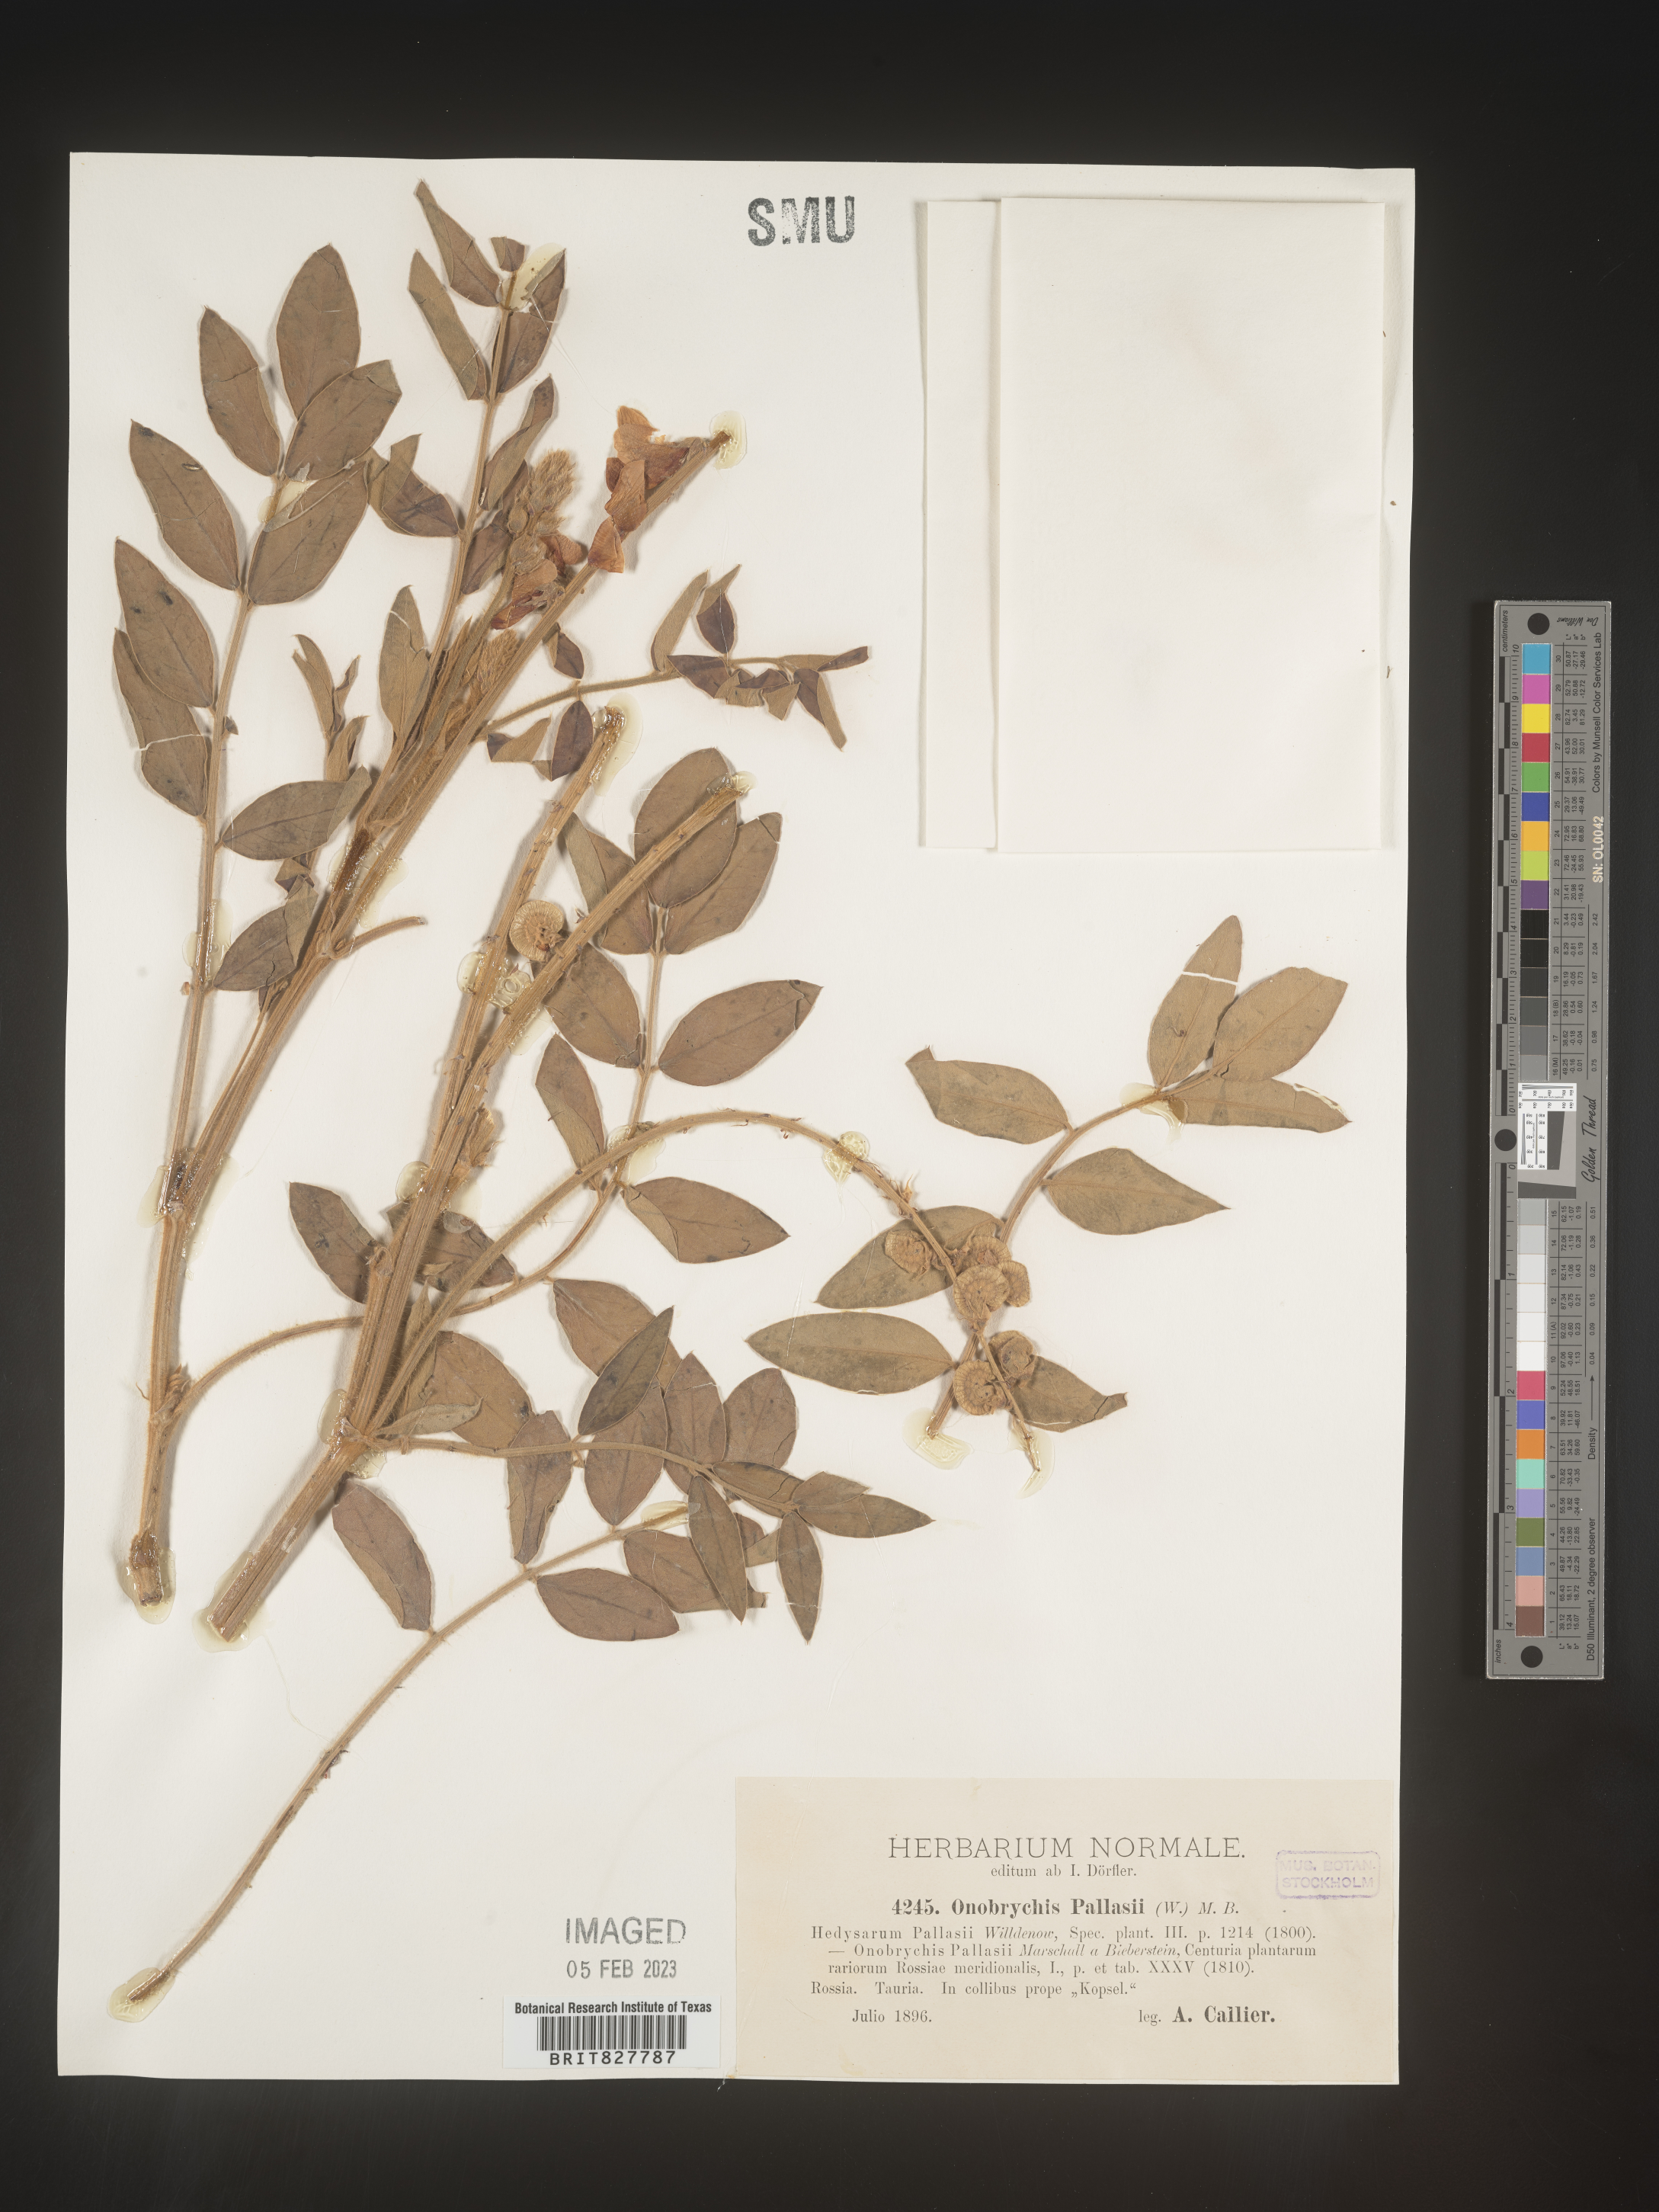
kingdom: Plantae
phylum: Tracheophyta
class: Magnoliopsida
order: Fabales
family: Fabaceae
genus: Onobrychis
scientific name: Onobrychis
